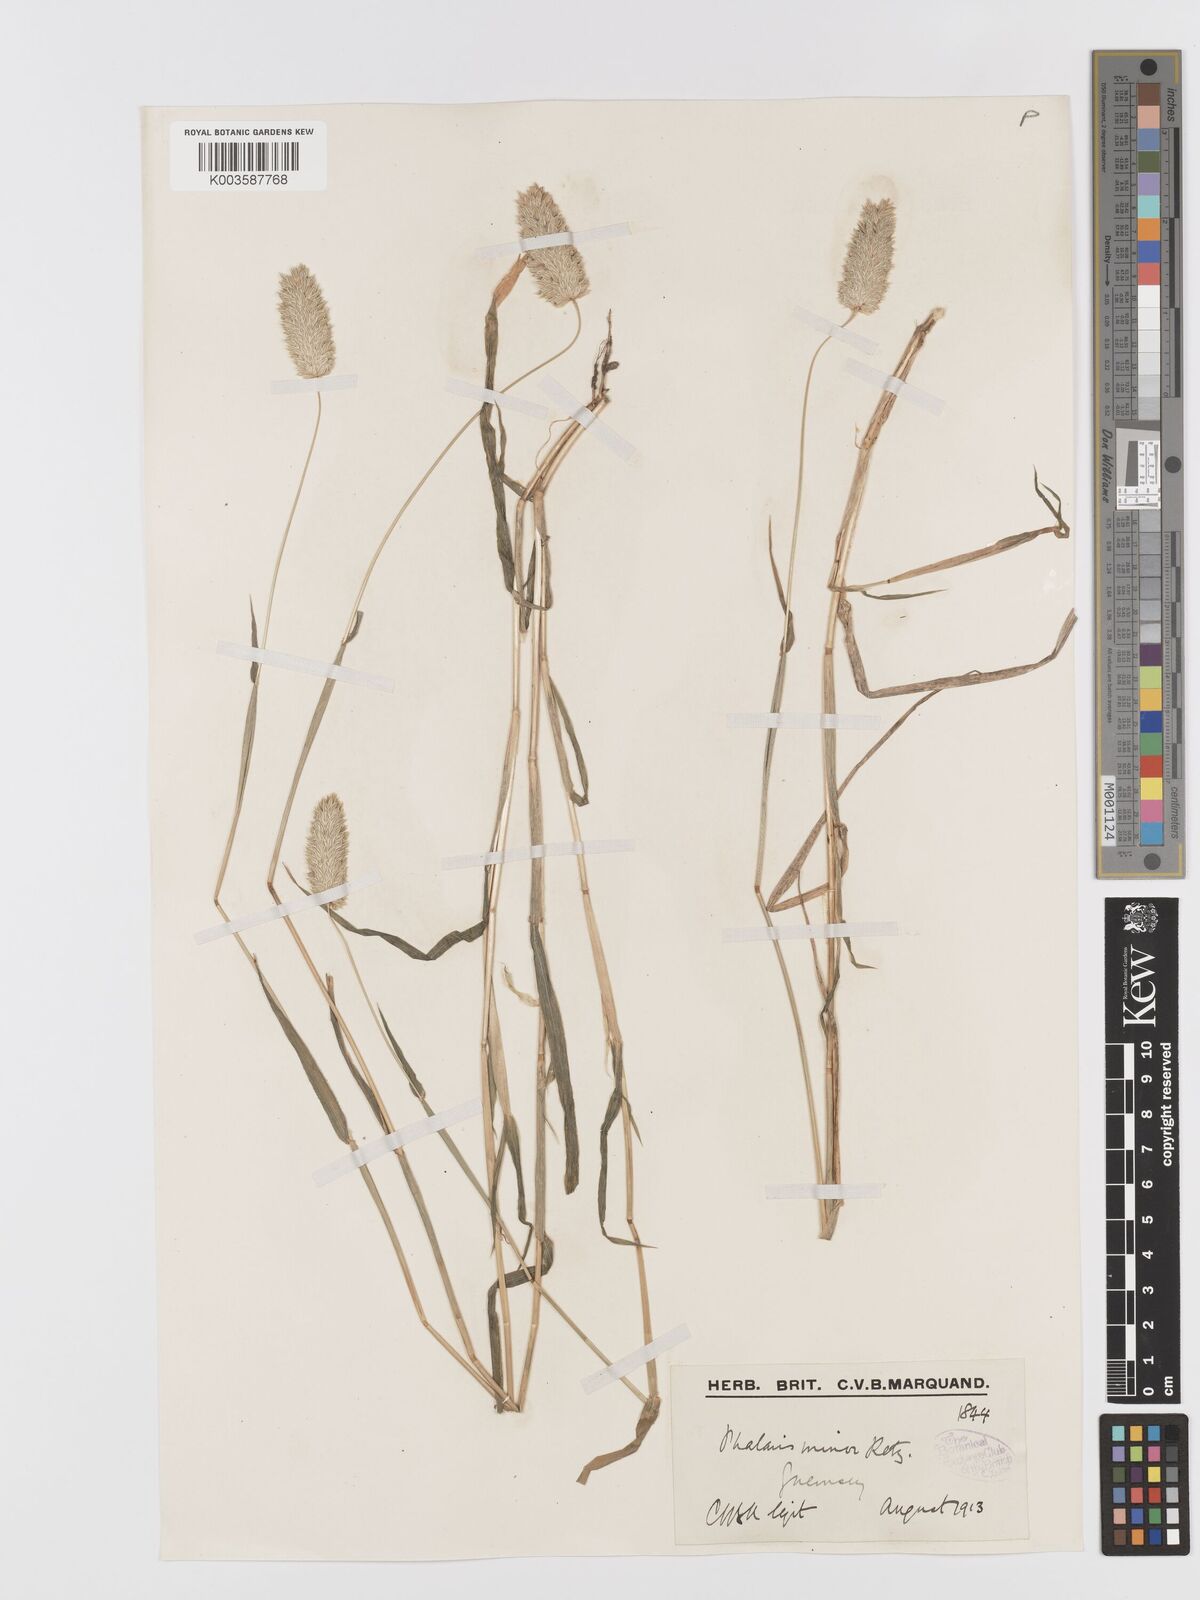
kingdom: Plantae
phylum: Tracheophyta
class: Liliopsida
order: Poales
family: Poaceae
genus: Phalaris
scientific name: Phalaris minor
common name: Littleseed canarygrass
